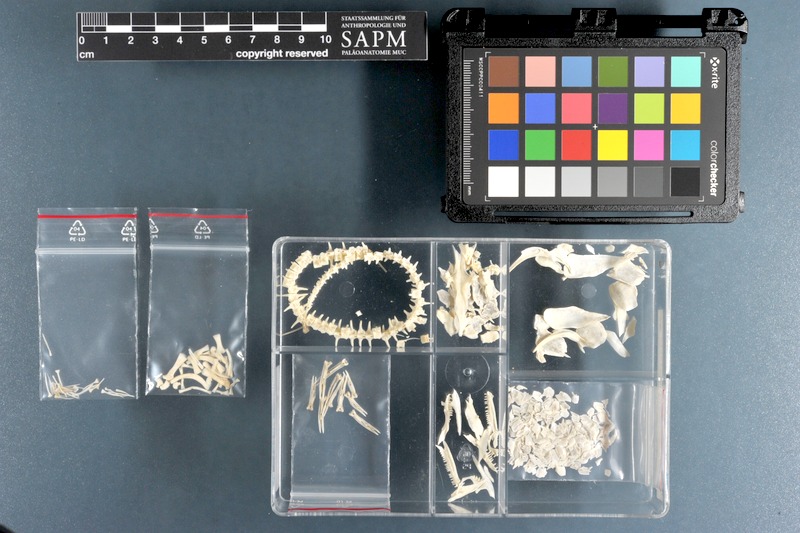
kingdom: Animalia
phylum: Chordata
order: Polypteriformes
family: Polypteridae
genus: Polypterus
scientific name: Polypterus ornatipinnis
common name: Ornate bichir
